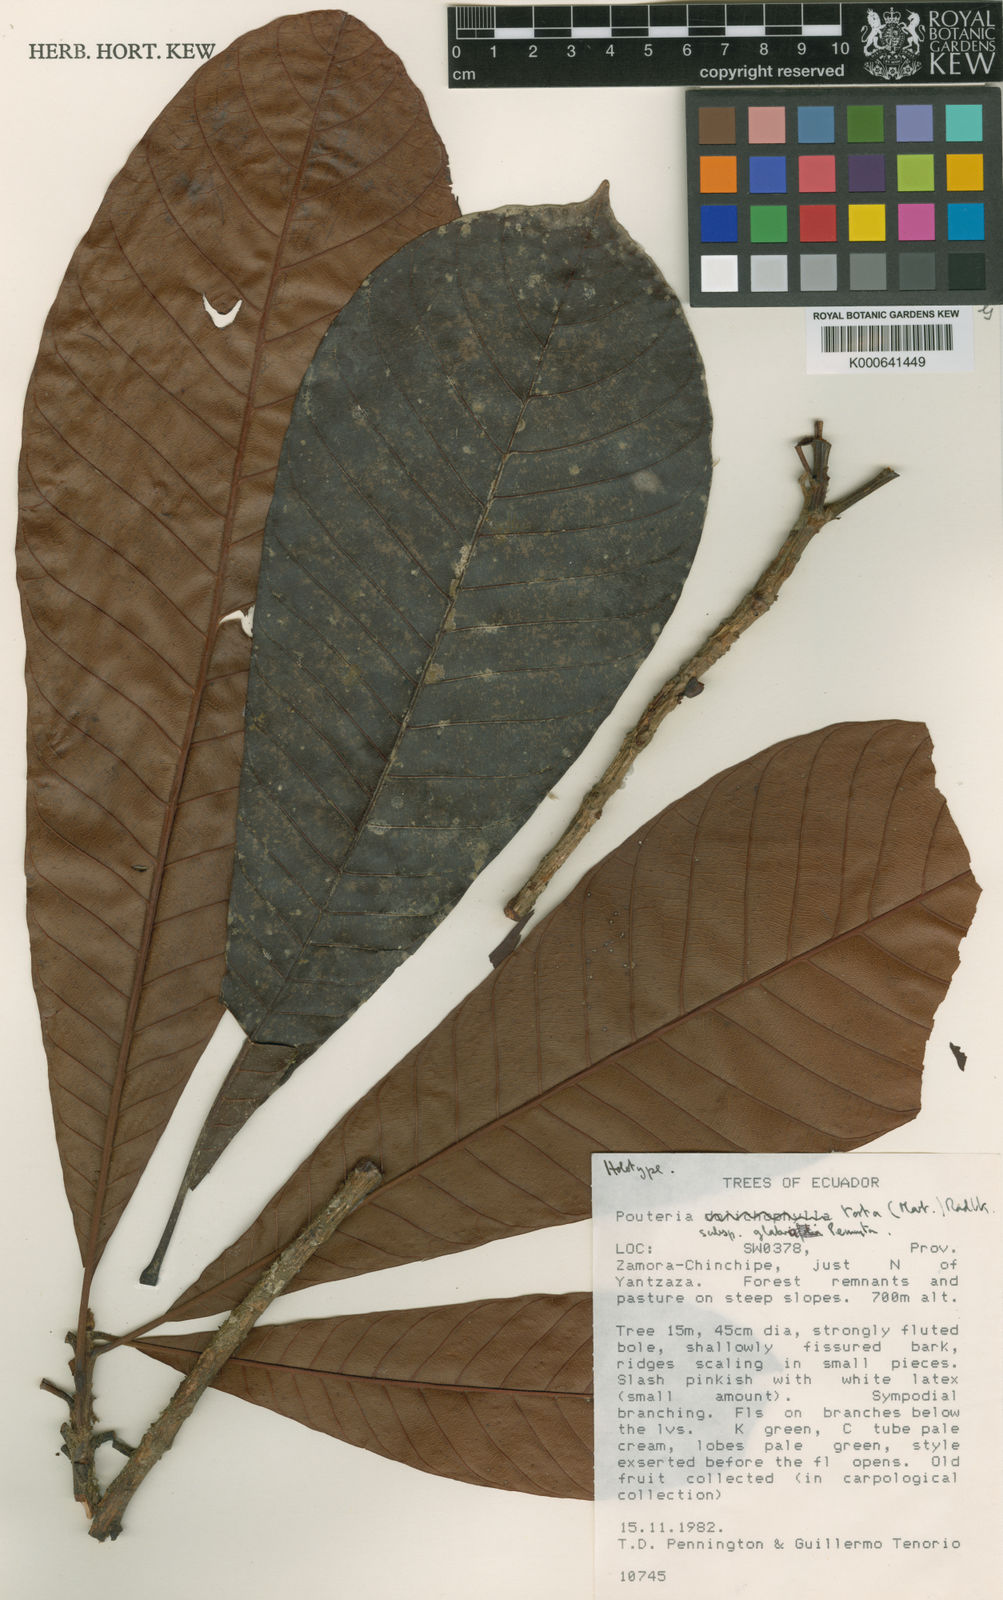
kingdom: Plantae
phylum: Tracheophyta
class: Magnoliopsida
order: Ericales
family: Sapotaceae
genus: Pouteria
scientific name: Pouteria guianensis
